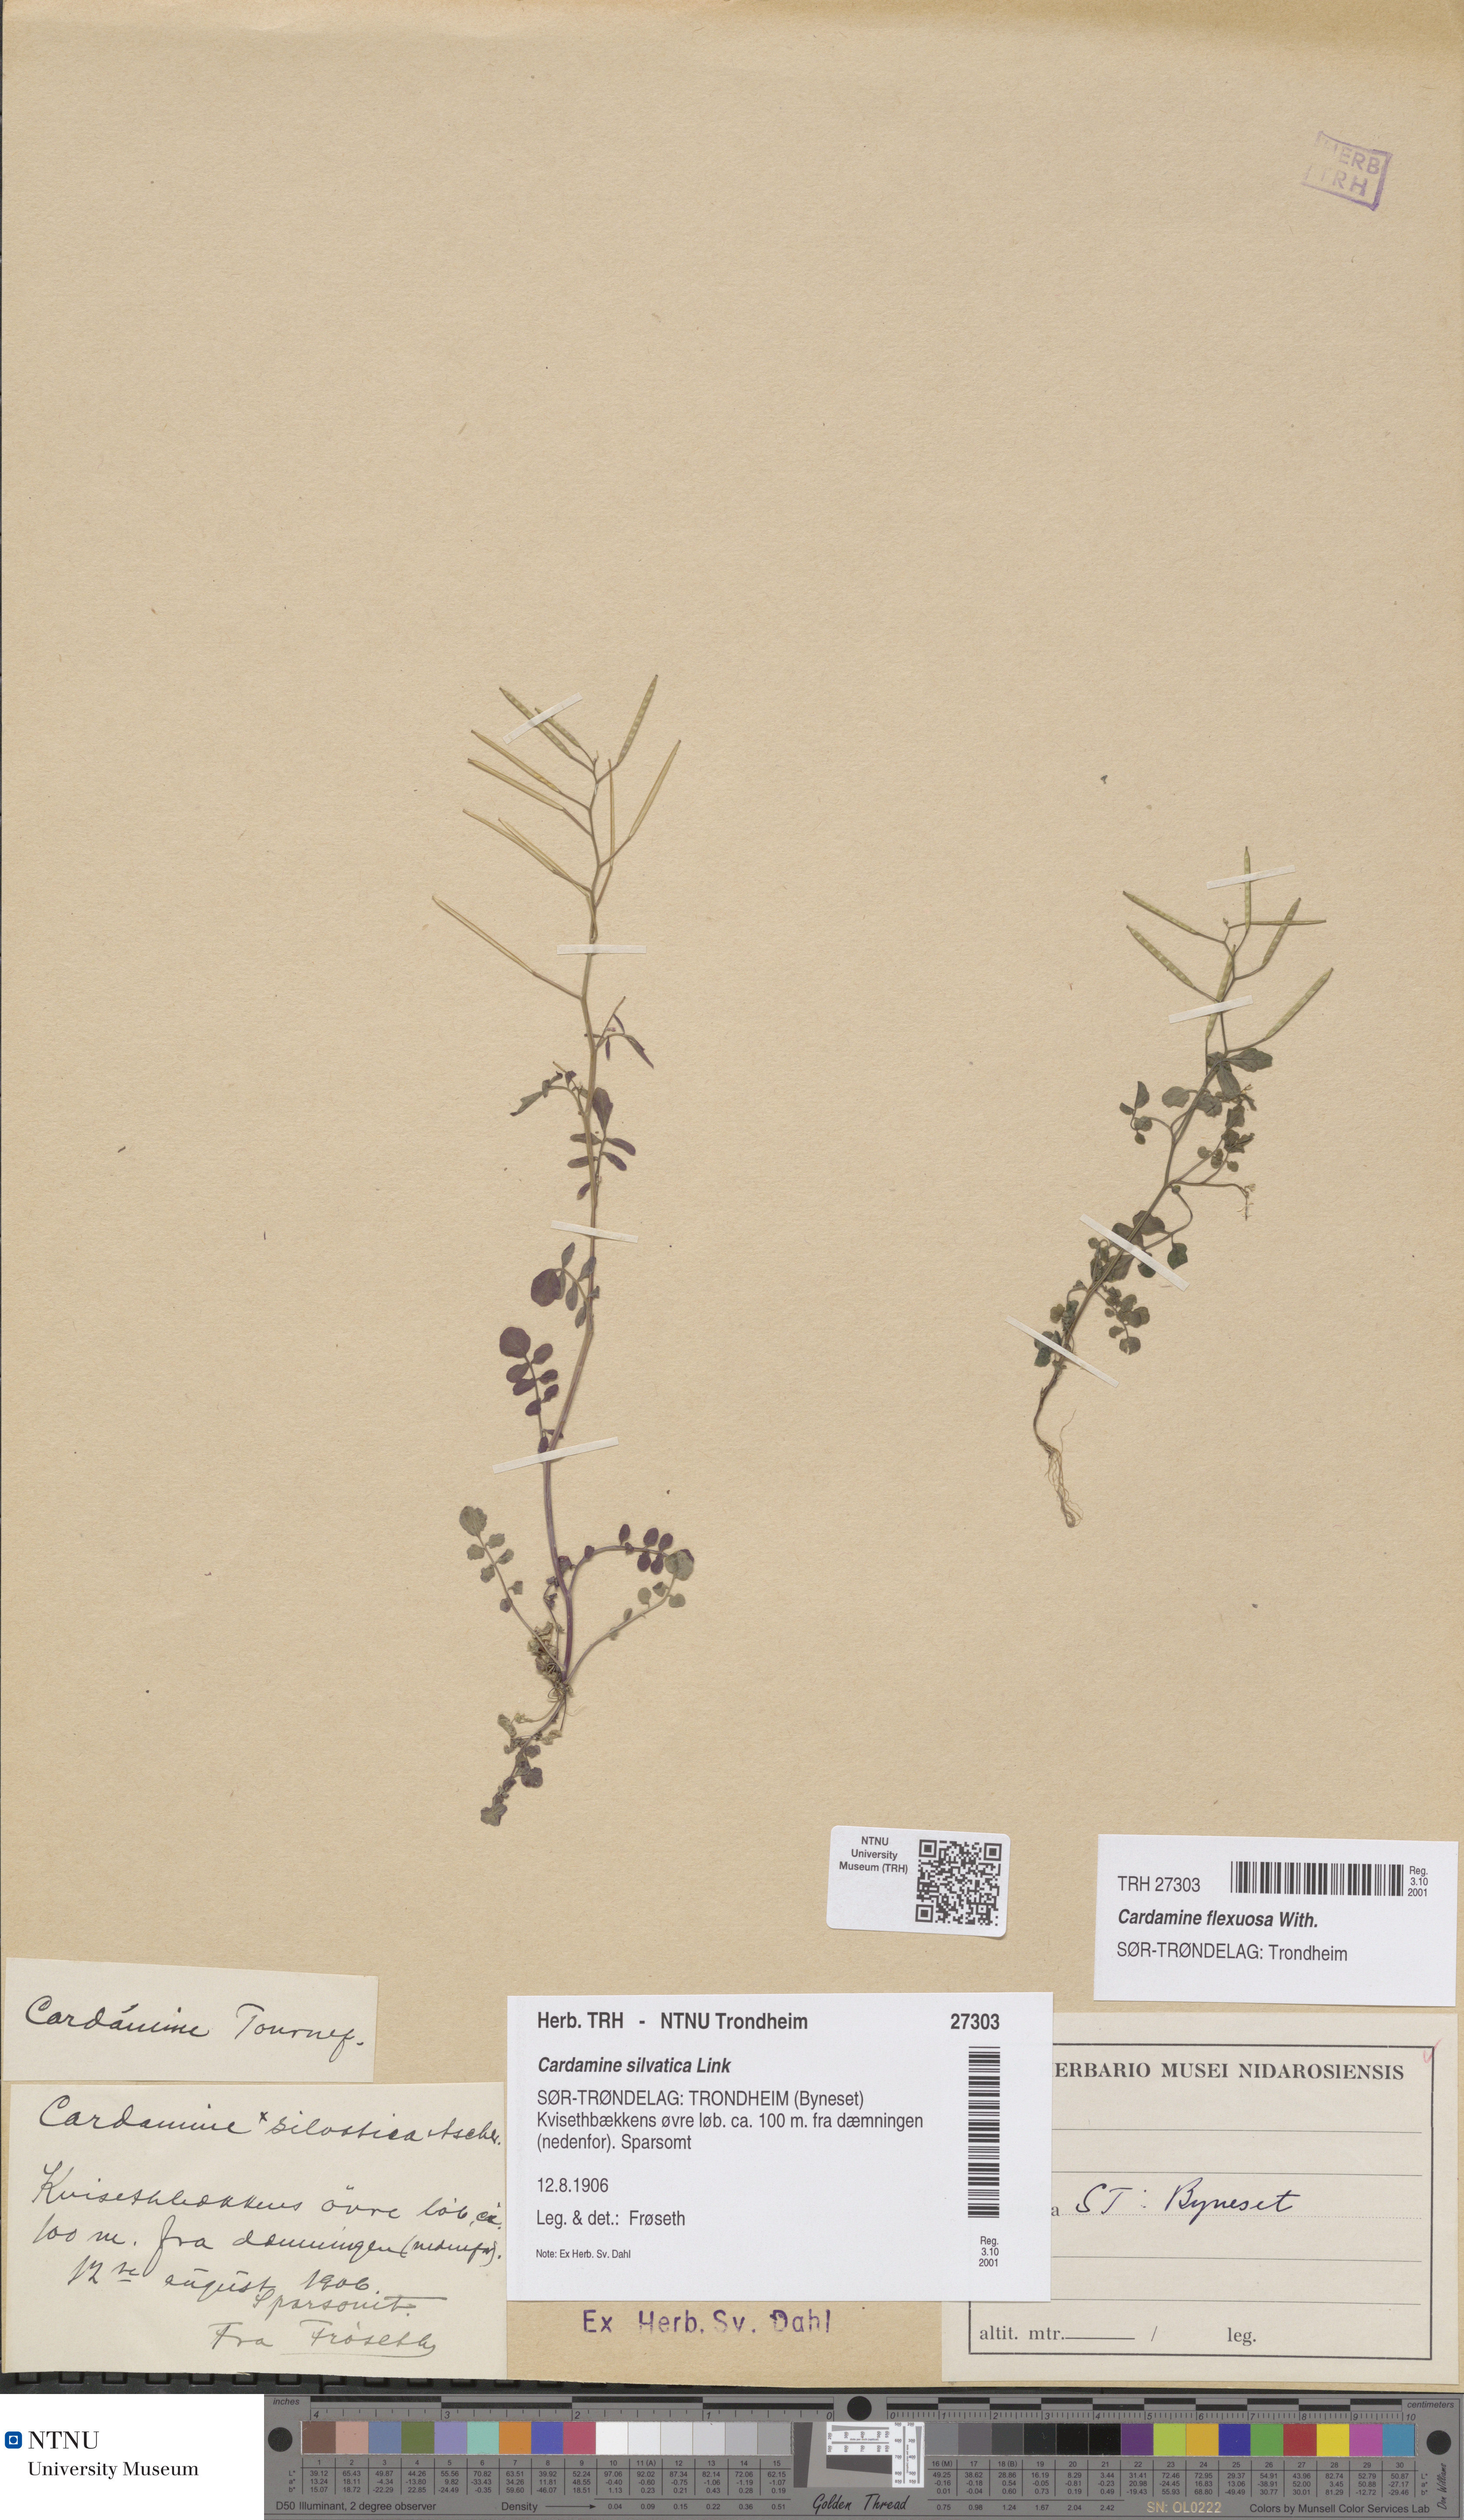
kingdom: Plantae
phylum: Tracheophyta
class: Magnoliopsida
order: Brassicales
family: Brassicaceae
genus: Cardamine
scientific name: Cardamine flexuosa
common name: Woodland bittercress
